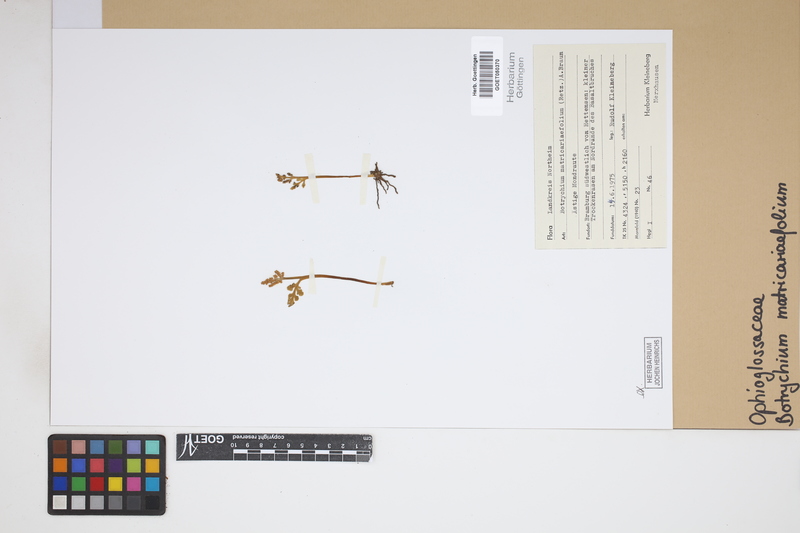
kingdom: Plantae
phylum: Tracheophyta
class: Polypodiopsida
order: Ophioglossales
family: Ophioglossaceae
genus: Botrychium
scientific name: Botrychium matricariifolium
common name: Branched moonwort
